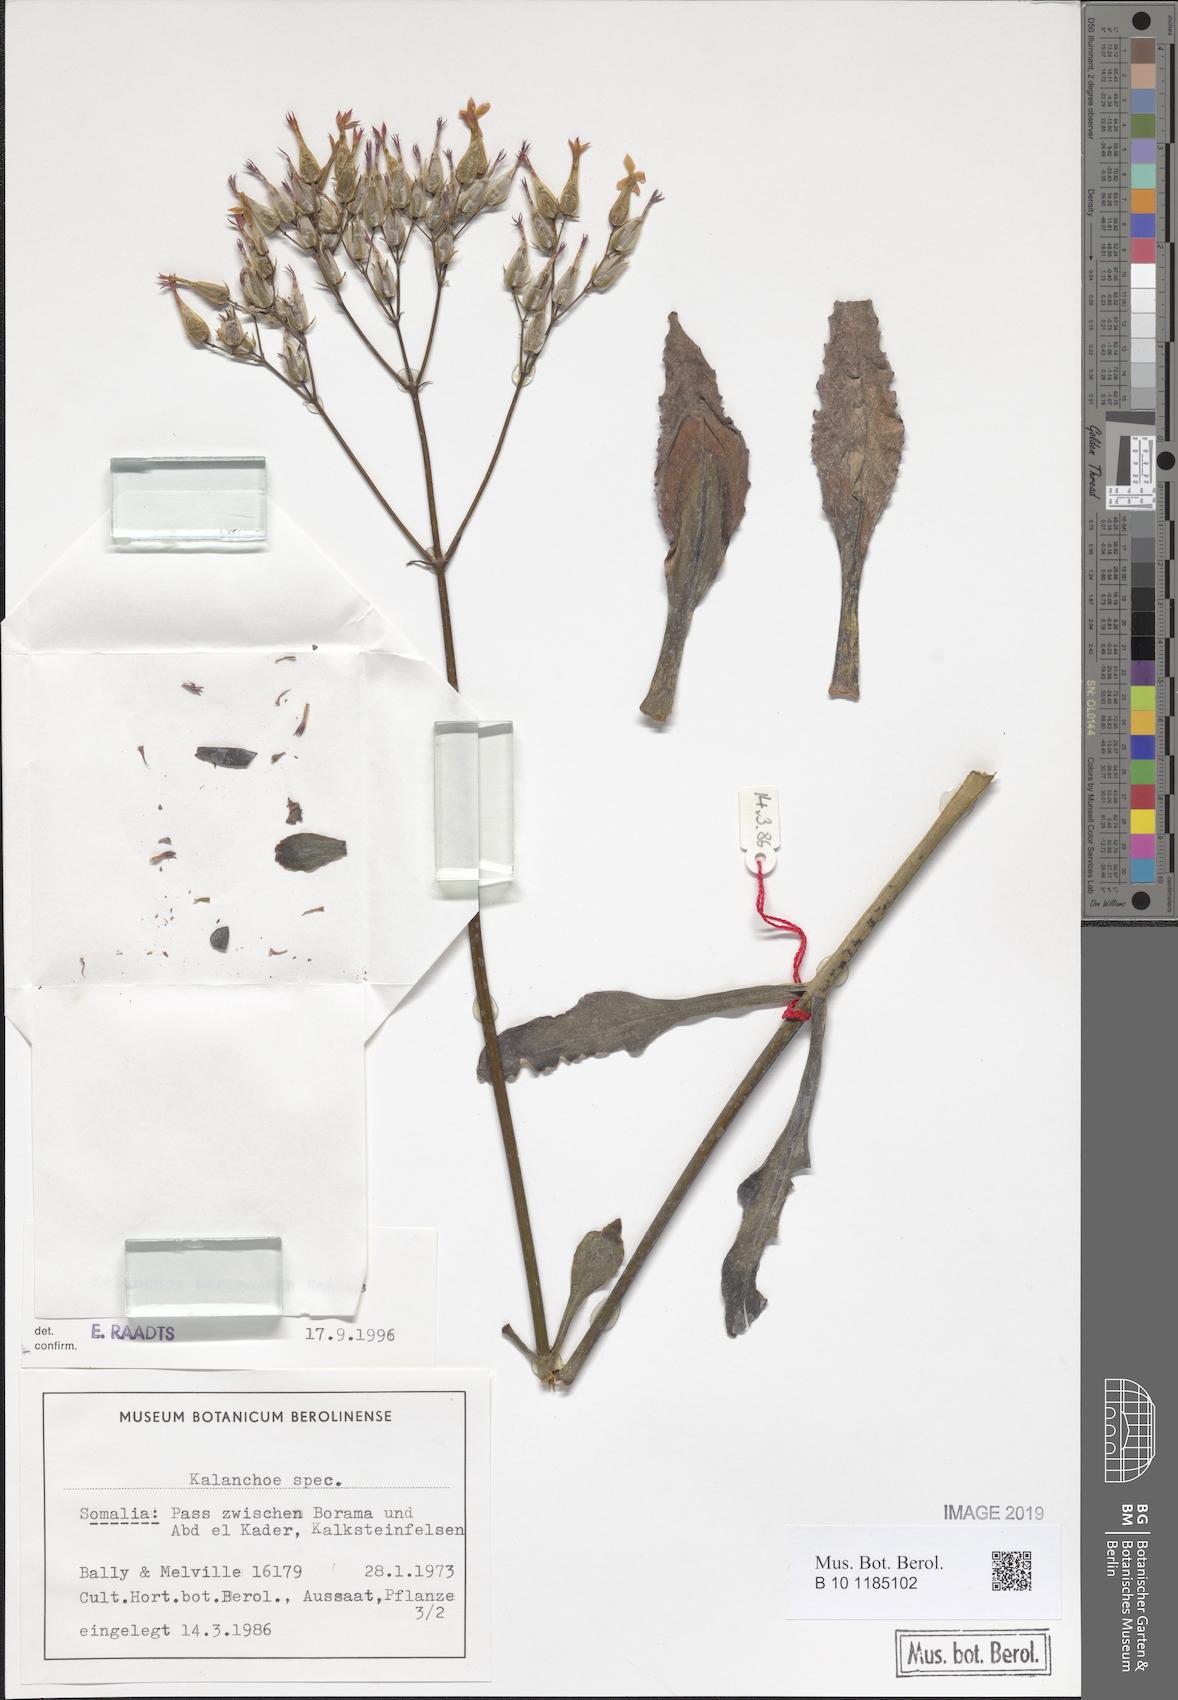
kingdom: Plantae
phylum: Tracheophyta
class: Magnoliopsida
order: Saxifragales
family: Crassulaceae
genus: Kalanchoe
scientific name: Kalanchoe
